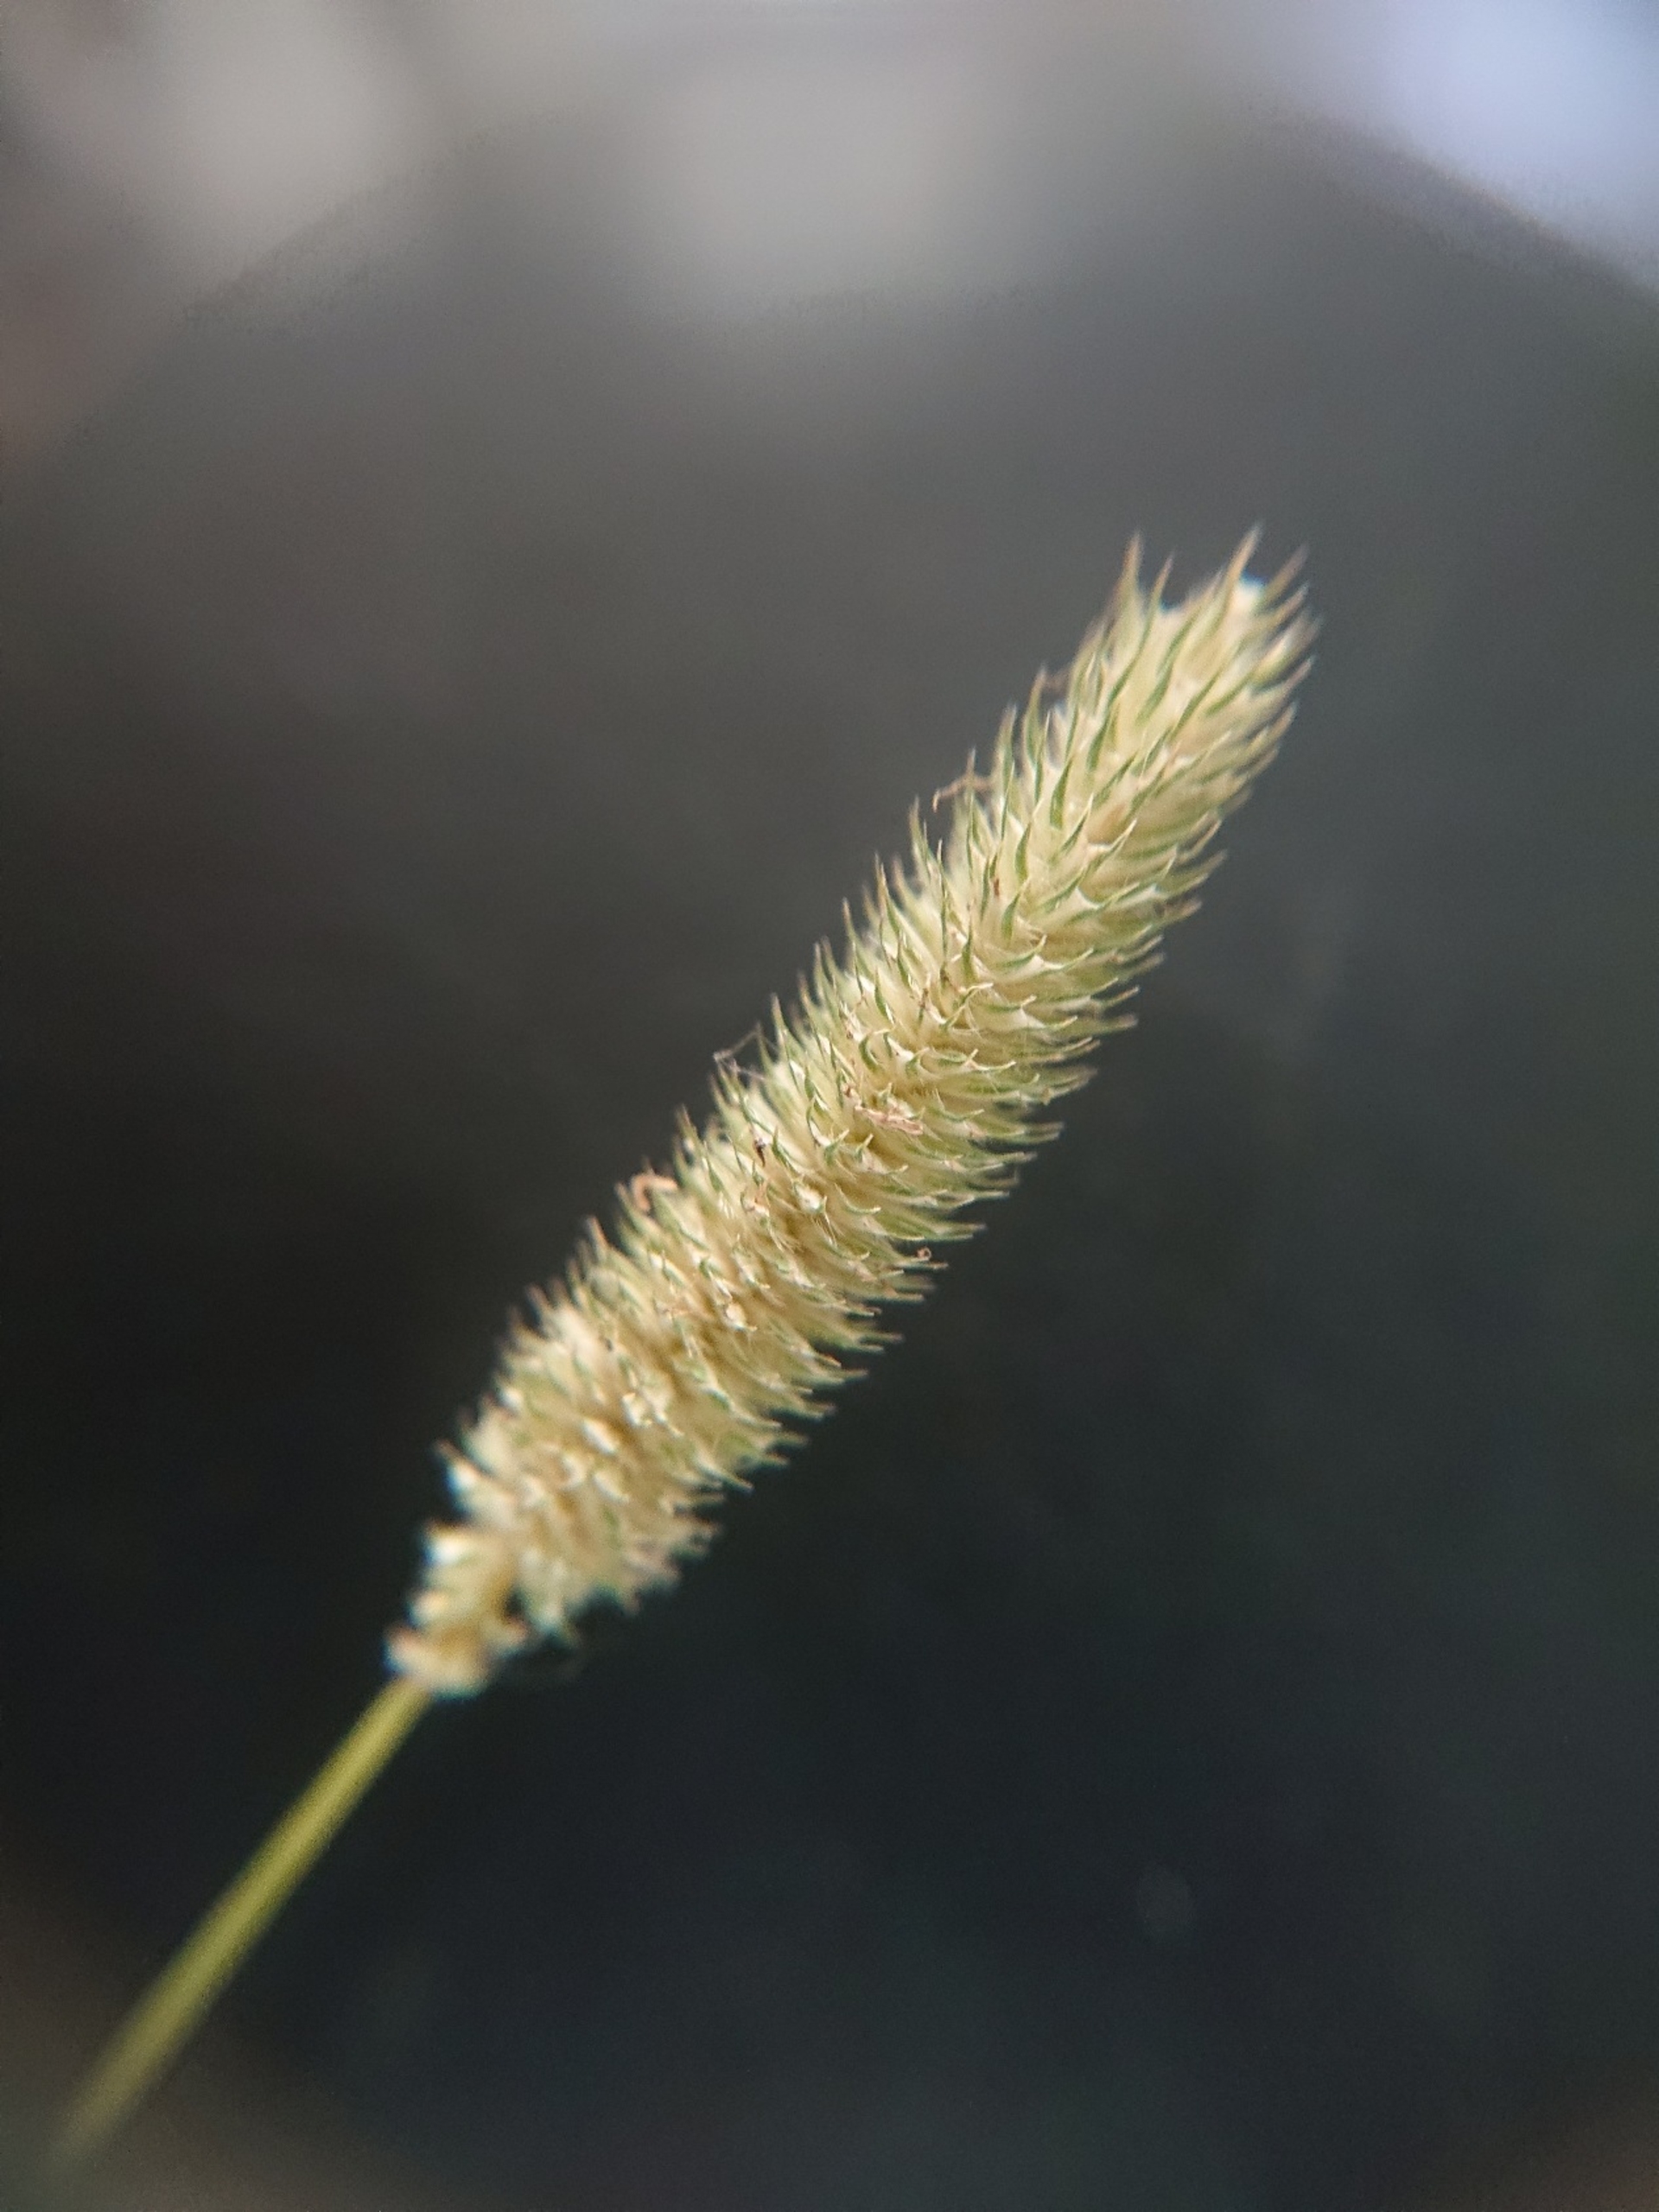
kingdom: Plantae
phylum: Tracheophyta
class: Liliopsida
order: Poales
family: Poaceae
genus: Phleum
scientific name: Phleum pratense
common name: Eng-rottehale
